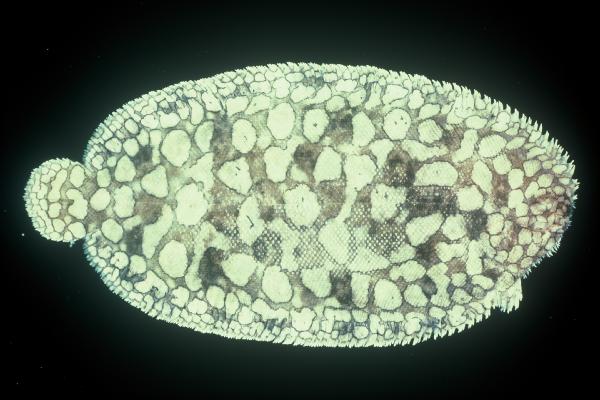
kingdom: Animalia
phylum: Chordata
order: Pleuronectiformes
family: Soleidae
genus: Pardachirus
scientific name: Pardachirus morrowi
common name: Persian carpet sole
